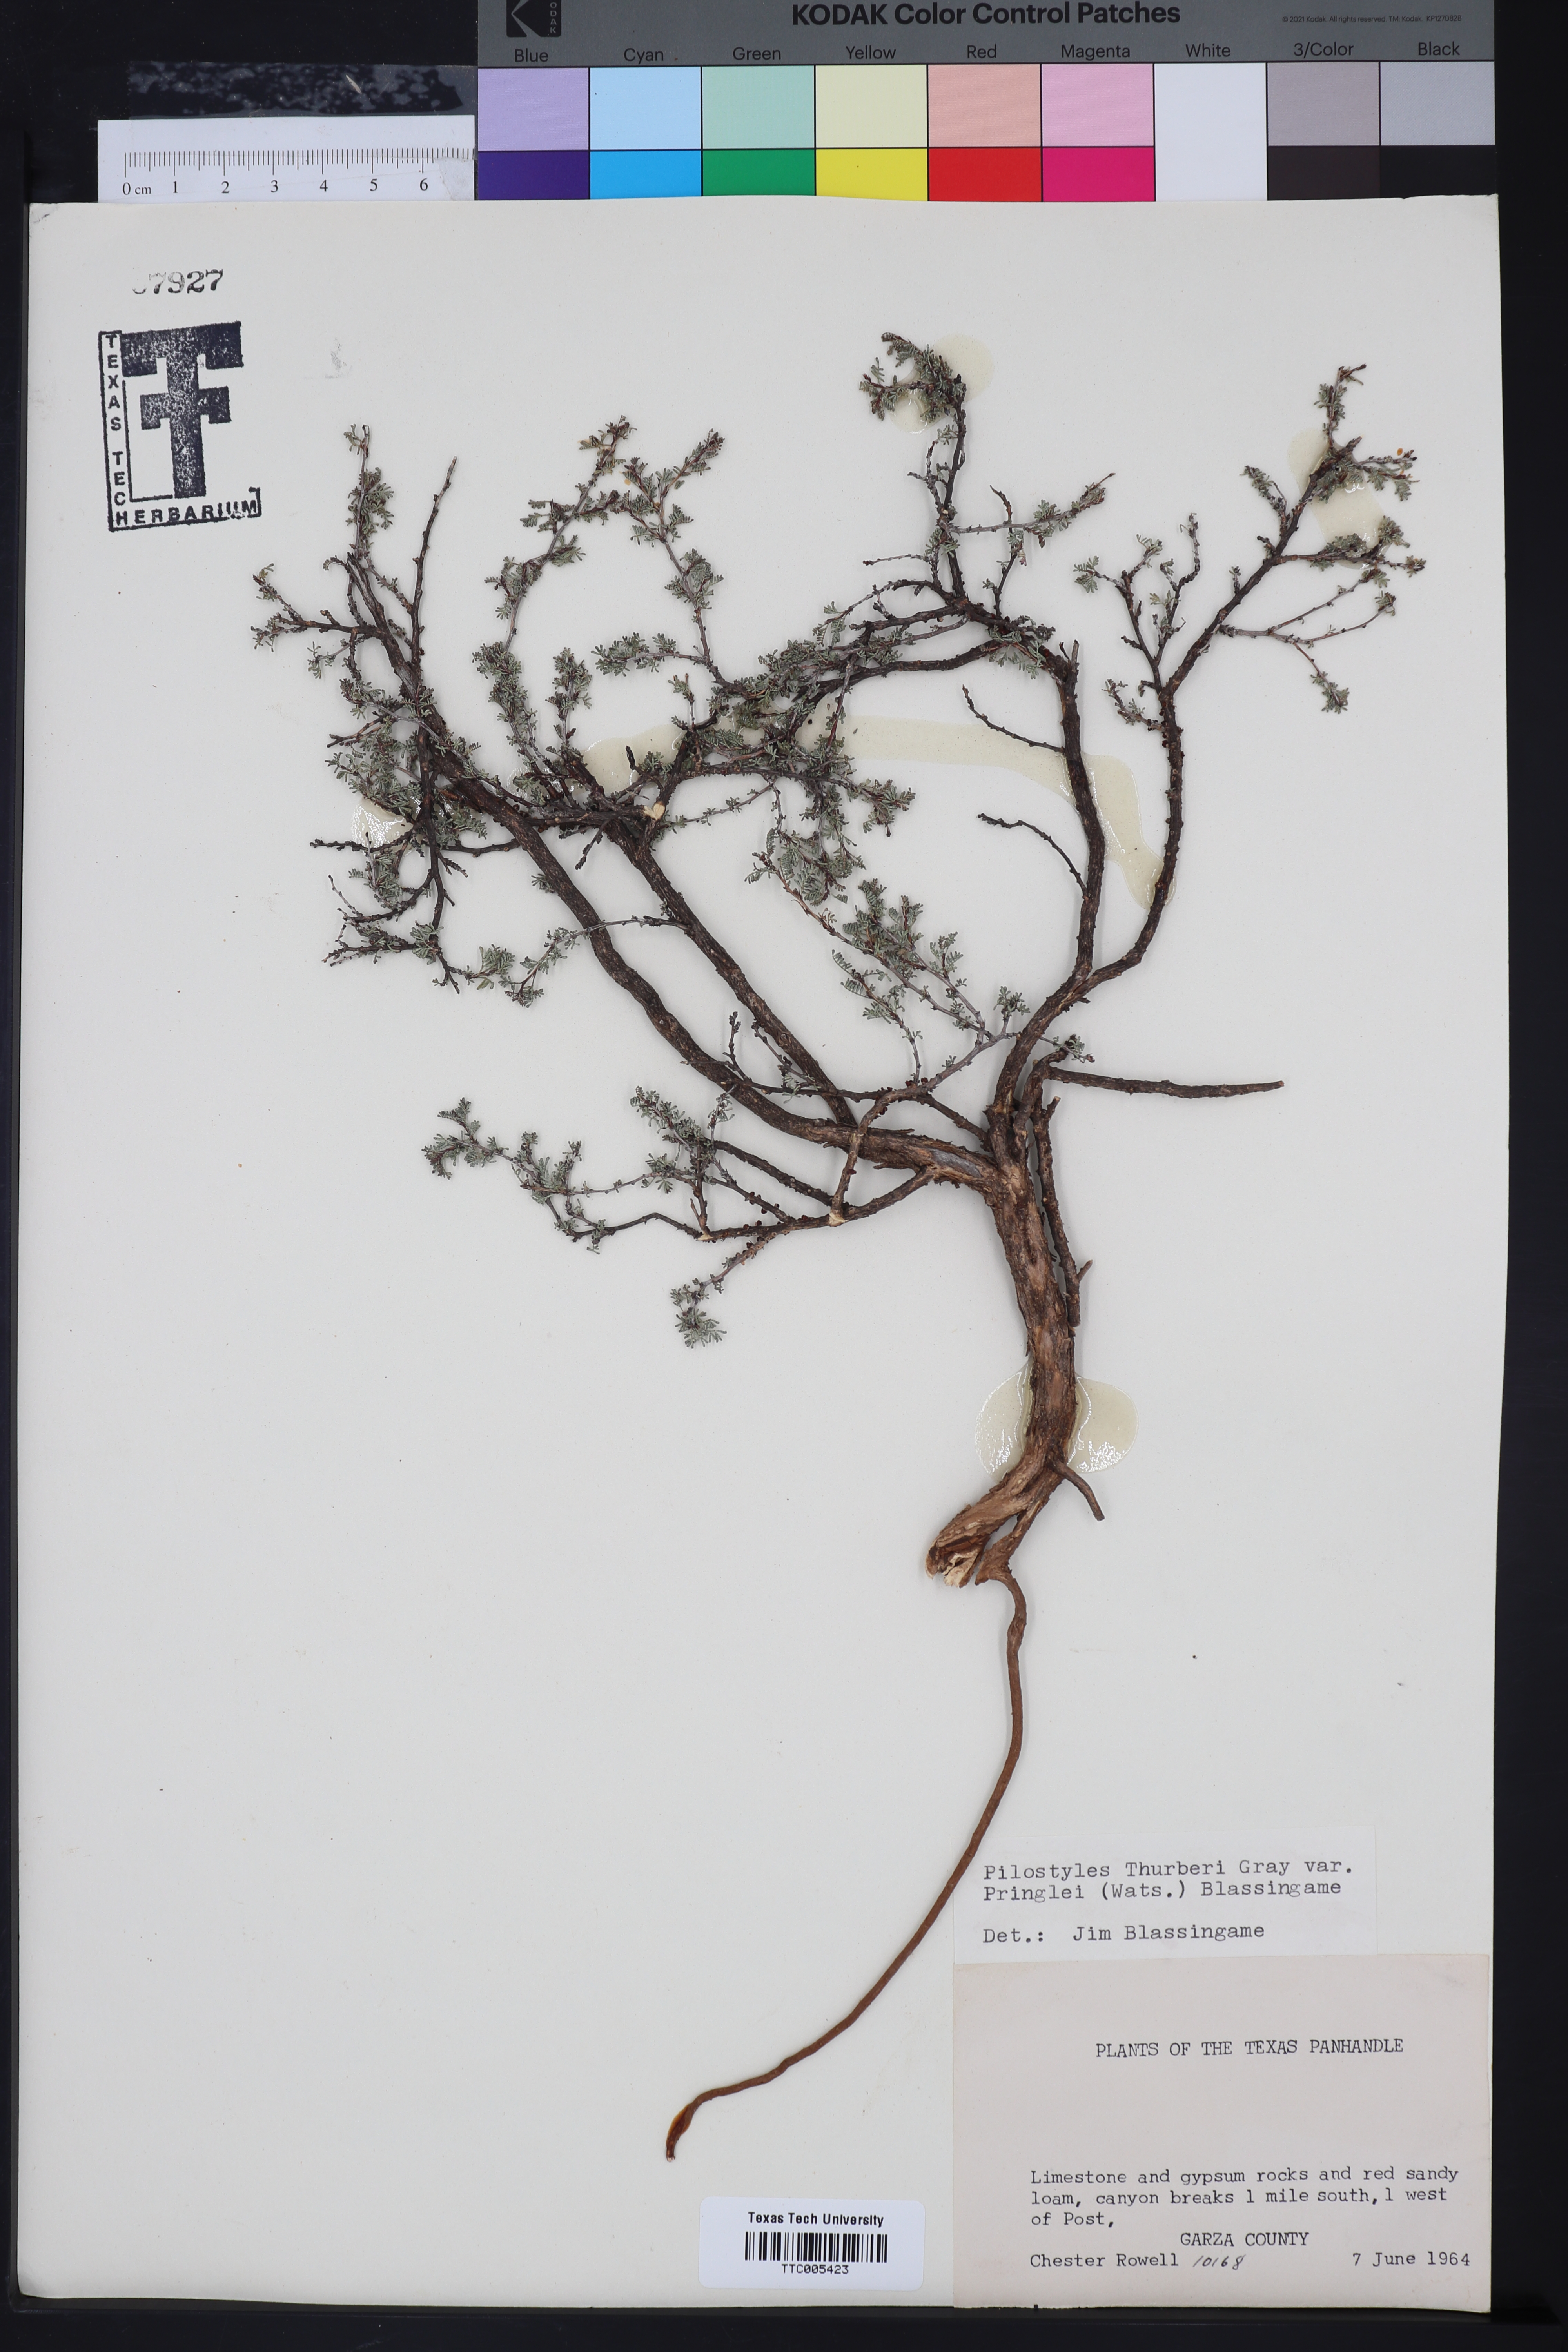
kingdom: Plantae
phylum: Tracheophyta
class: Magnoliopsida
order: Cucurbitales
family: Apodanthaceae
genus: Pilostyles
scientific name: Pilostyles thurberi
